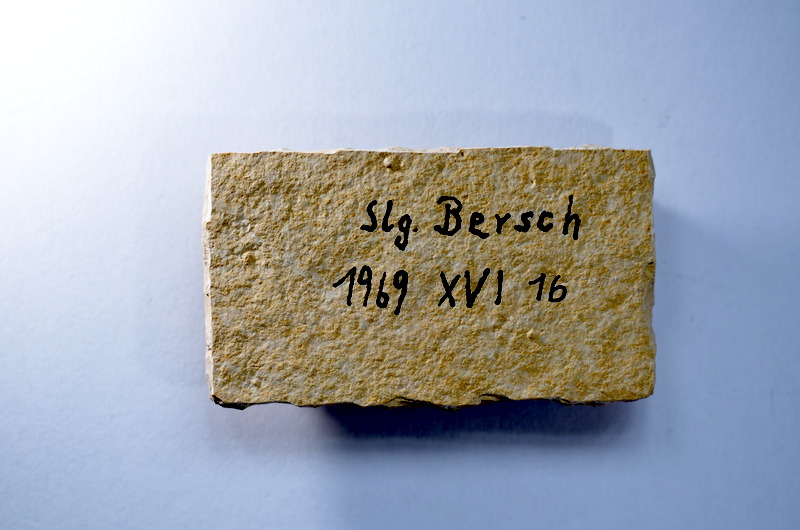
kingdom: Animalia
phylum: Chordata
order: Salmoniformes
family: Orthogonikleithridae
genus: Leptolepides
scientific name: Leptolepides
